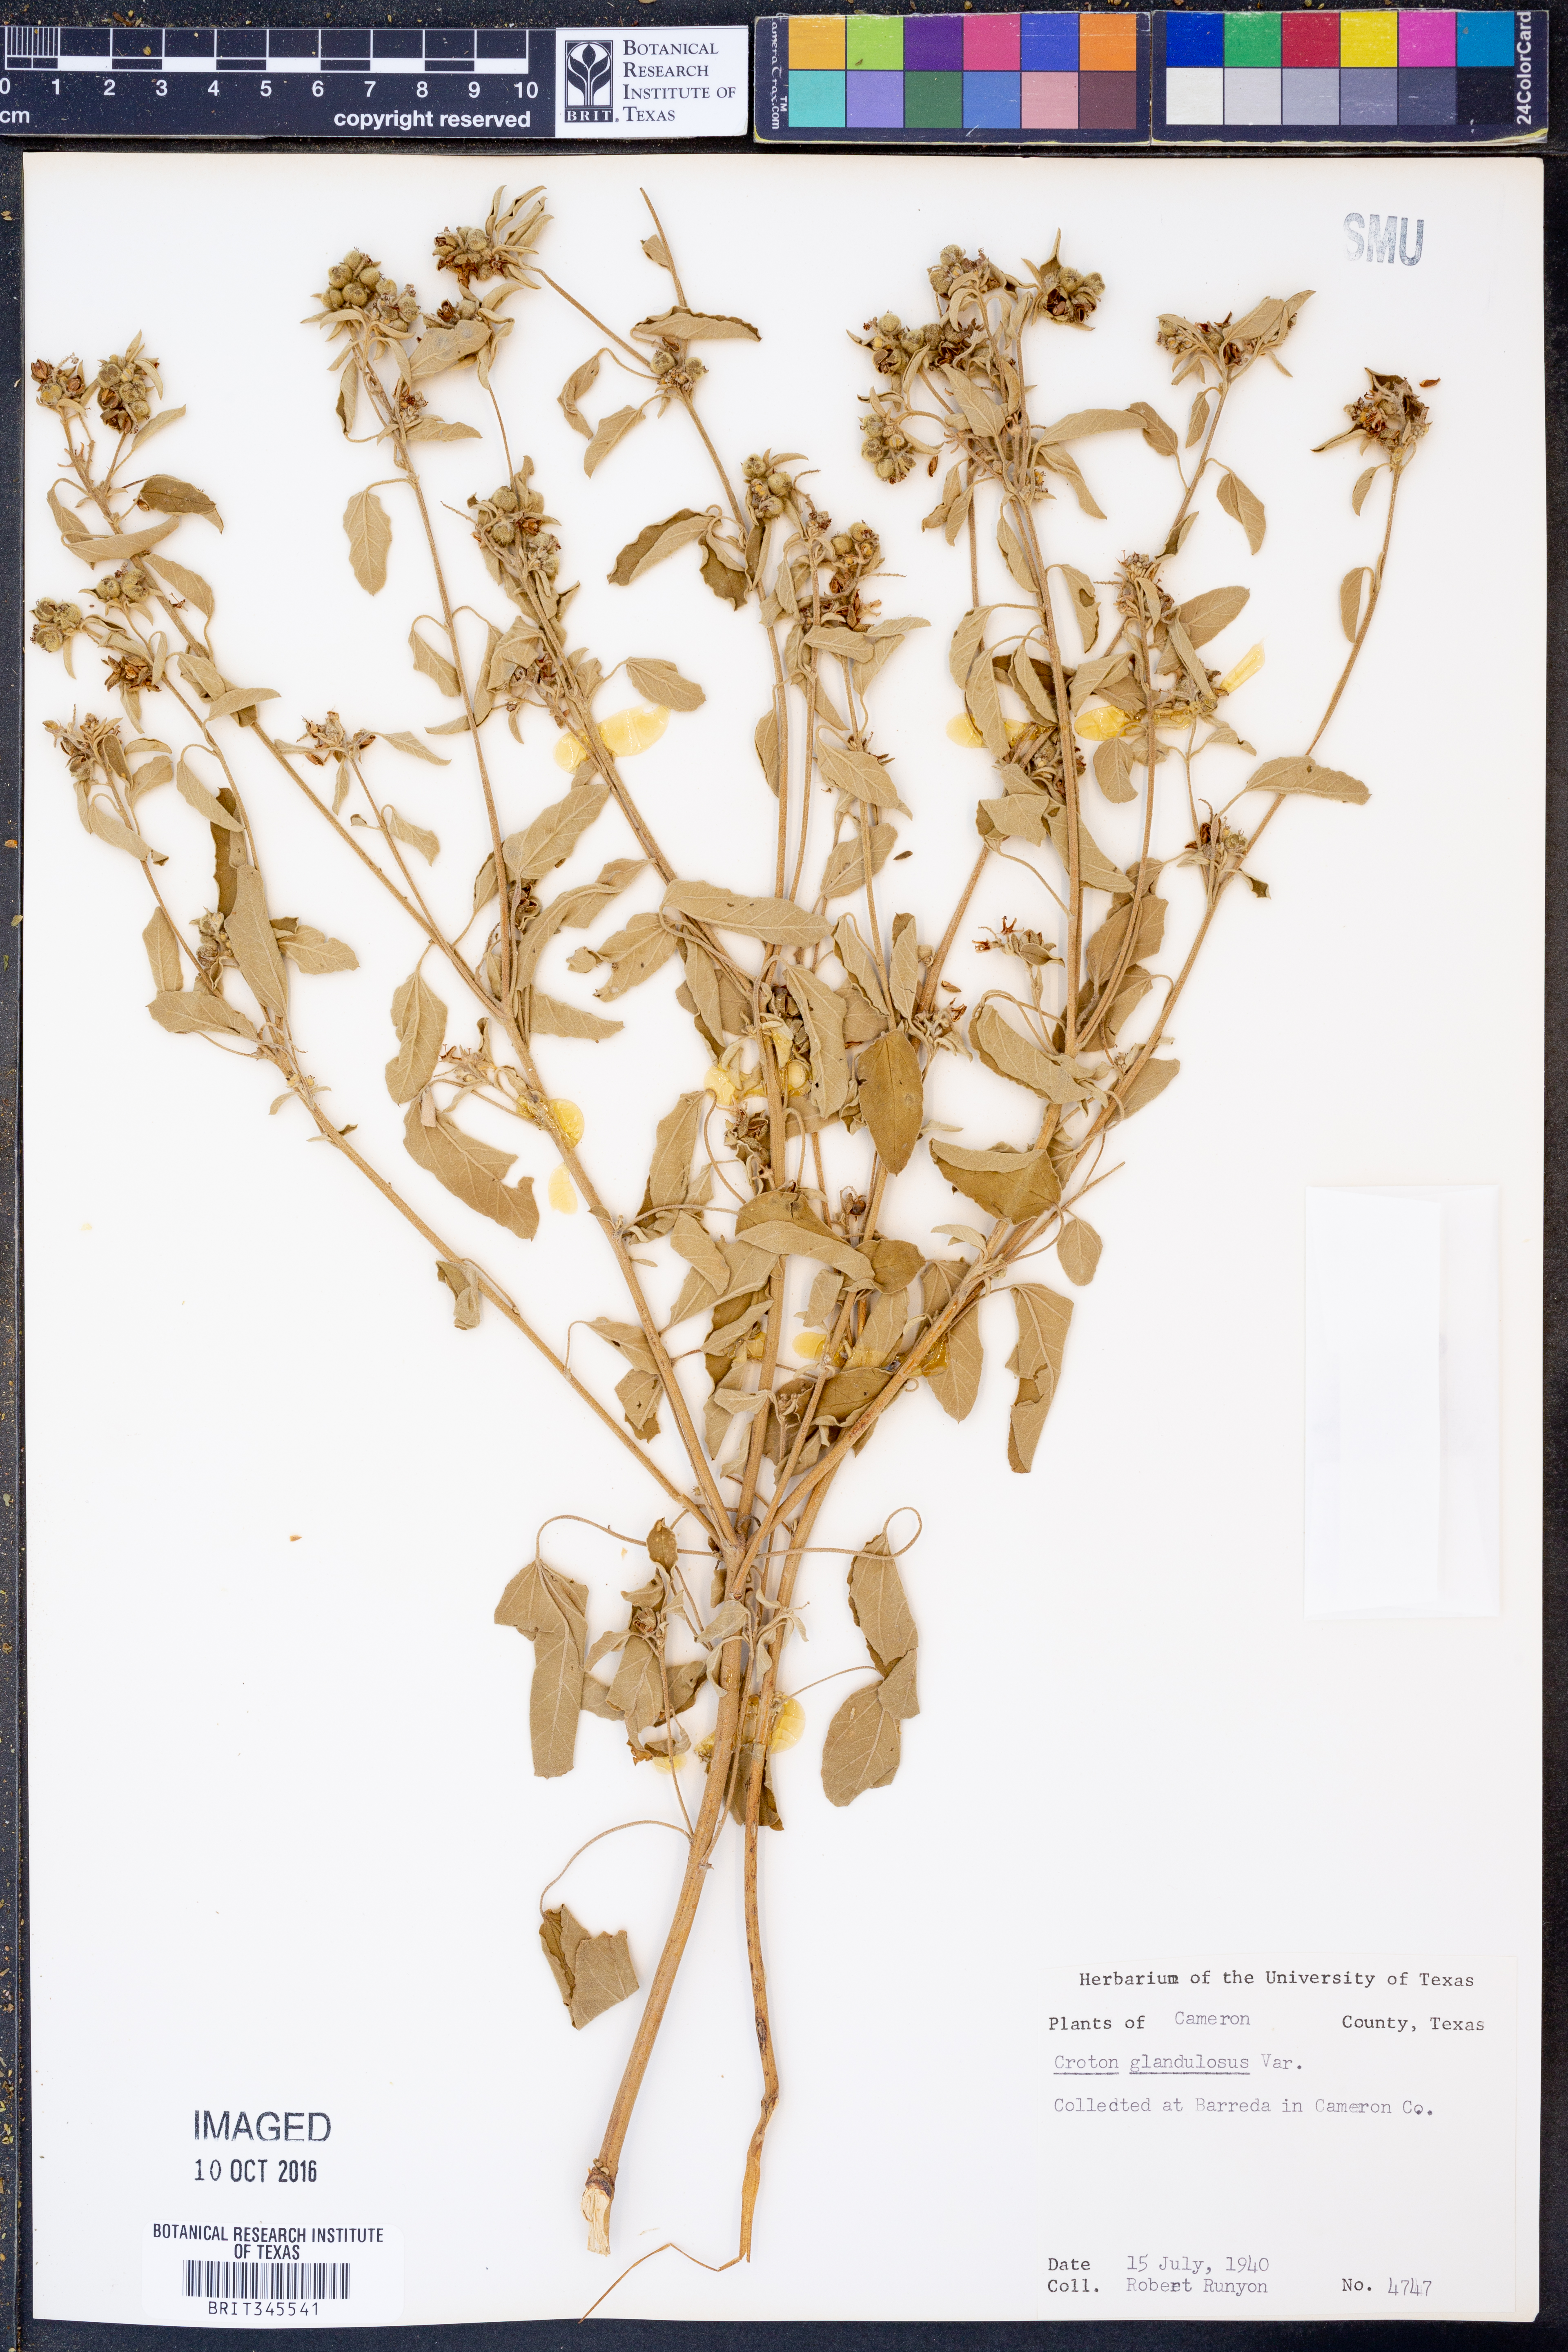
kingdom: Plantae
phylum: Tracheophyta
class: Magnoliopsida
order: Malpighiales
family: Euphorbiaceae
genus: Croton
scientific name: Croton glandulosus
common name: Tropic croton
